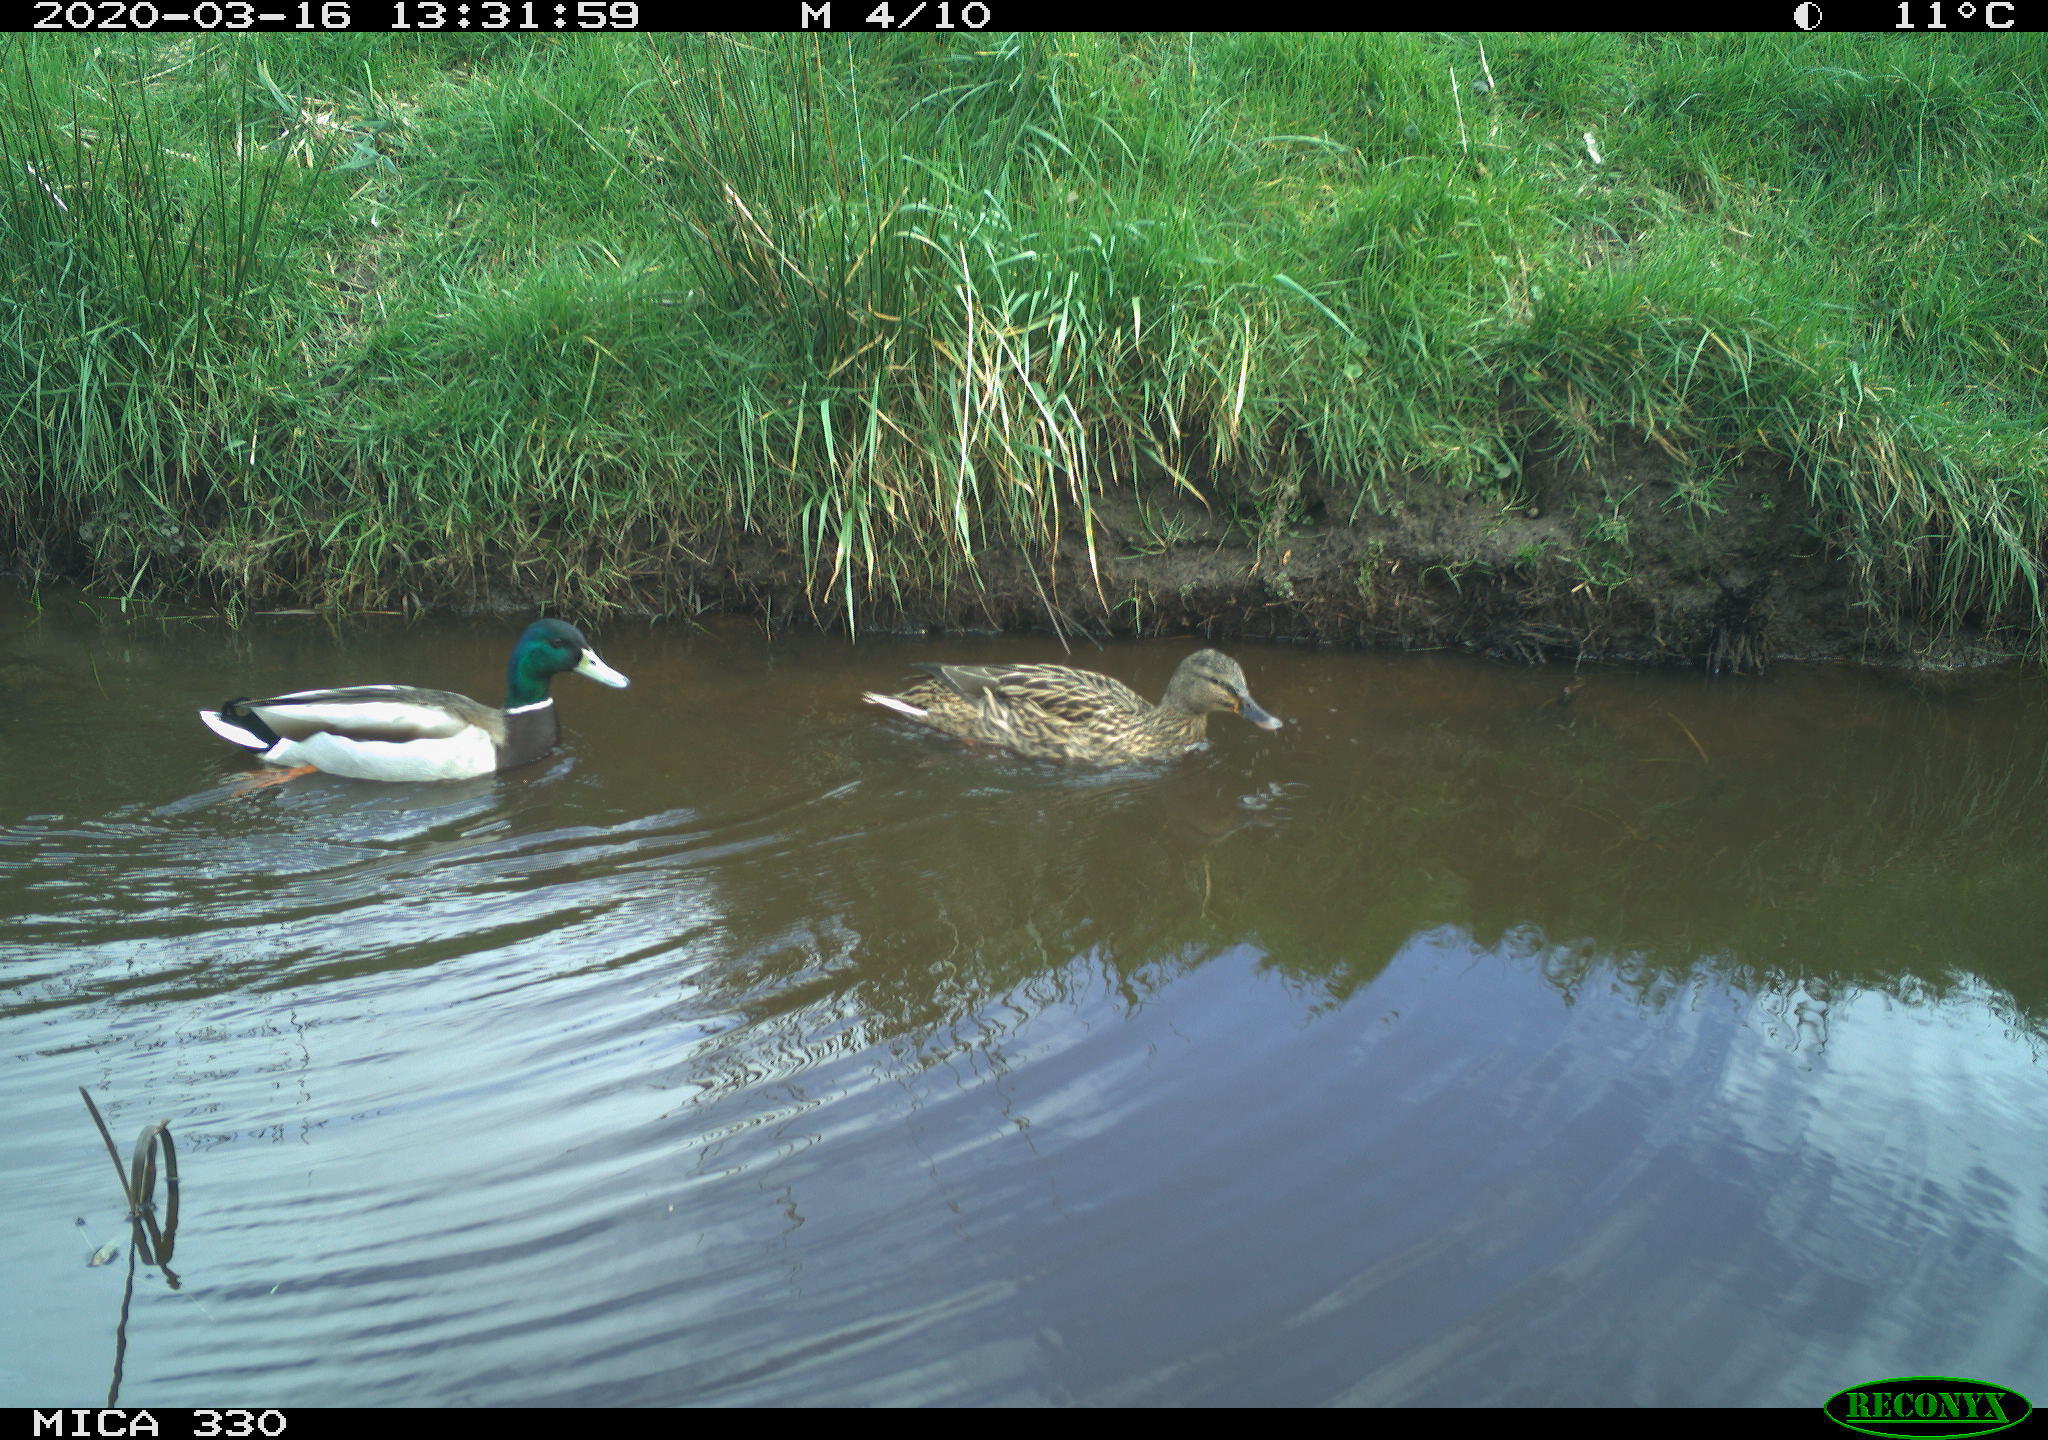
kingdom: Animalia
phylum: Chordata
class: Aves
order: Anseriformes
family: Anatidae
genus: Anas
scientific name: Anas platyrhynchos
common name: Mallard
